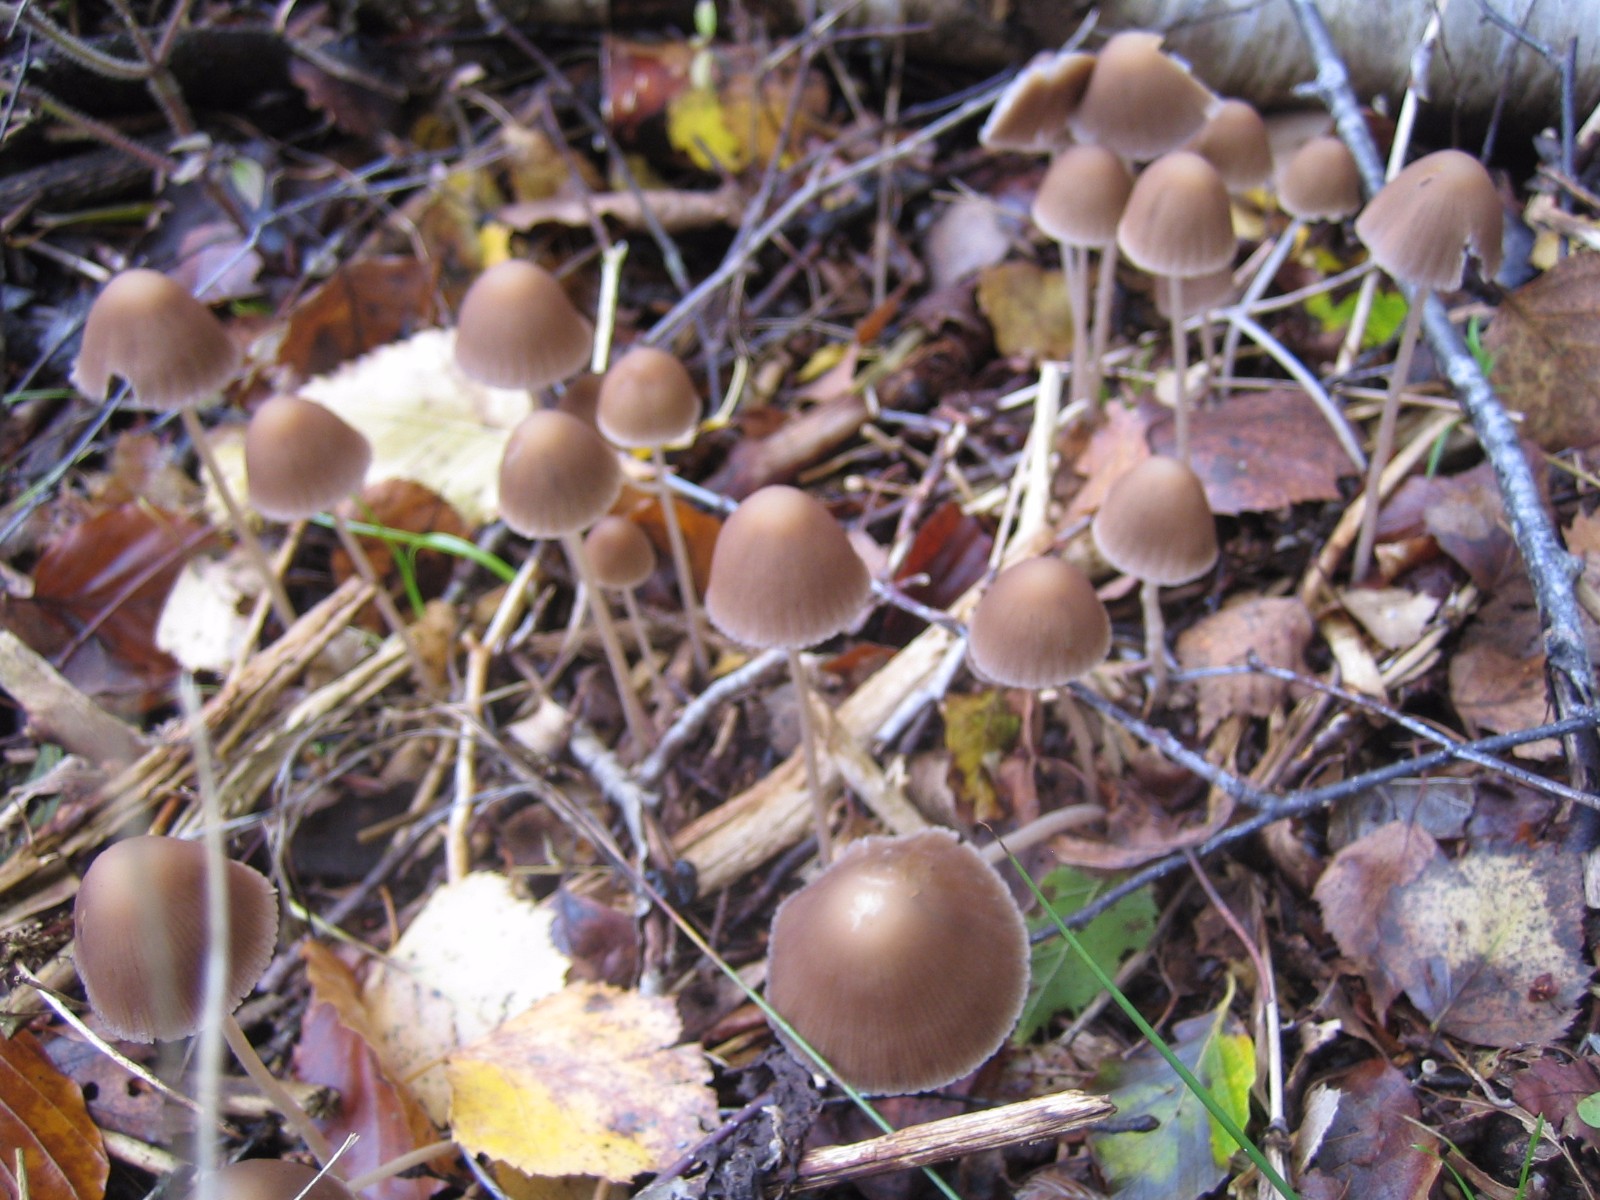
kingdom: Fungi
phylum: Basidiomycota
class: Agaricomycetes
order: Agaricales
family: Psathyrellaceae
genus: Psathyrella
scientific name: Psathyrella
